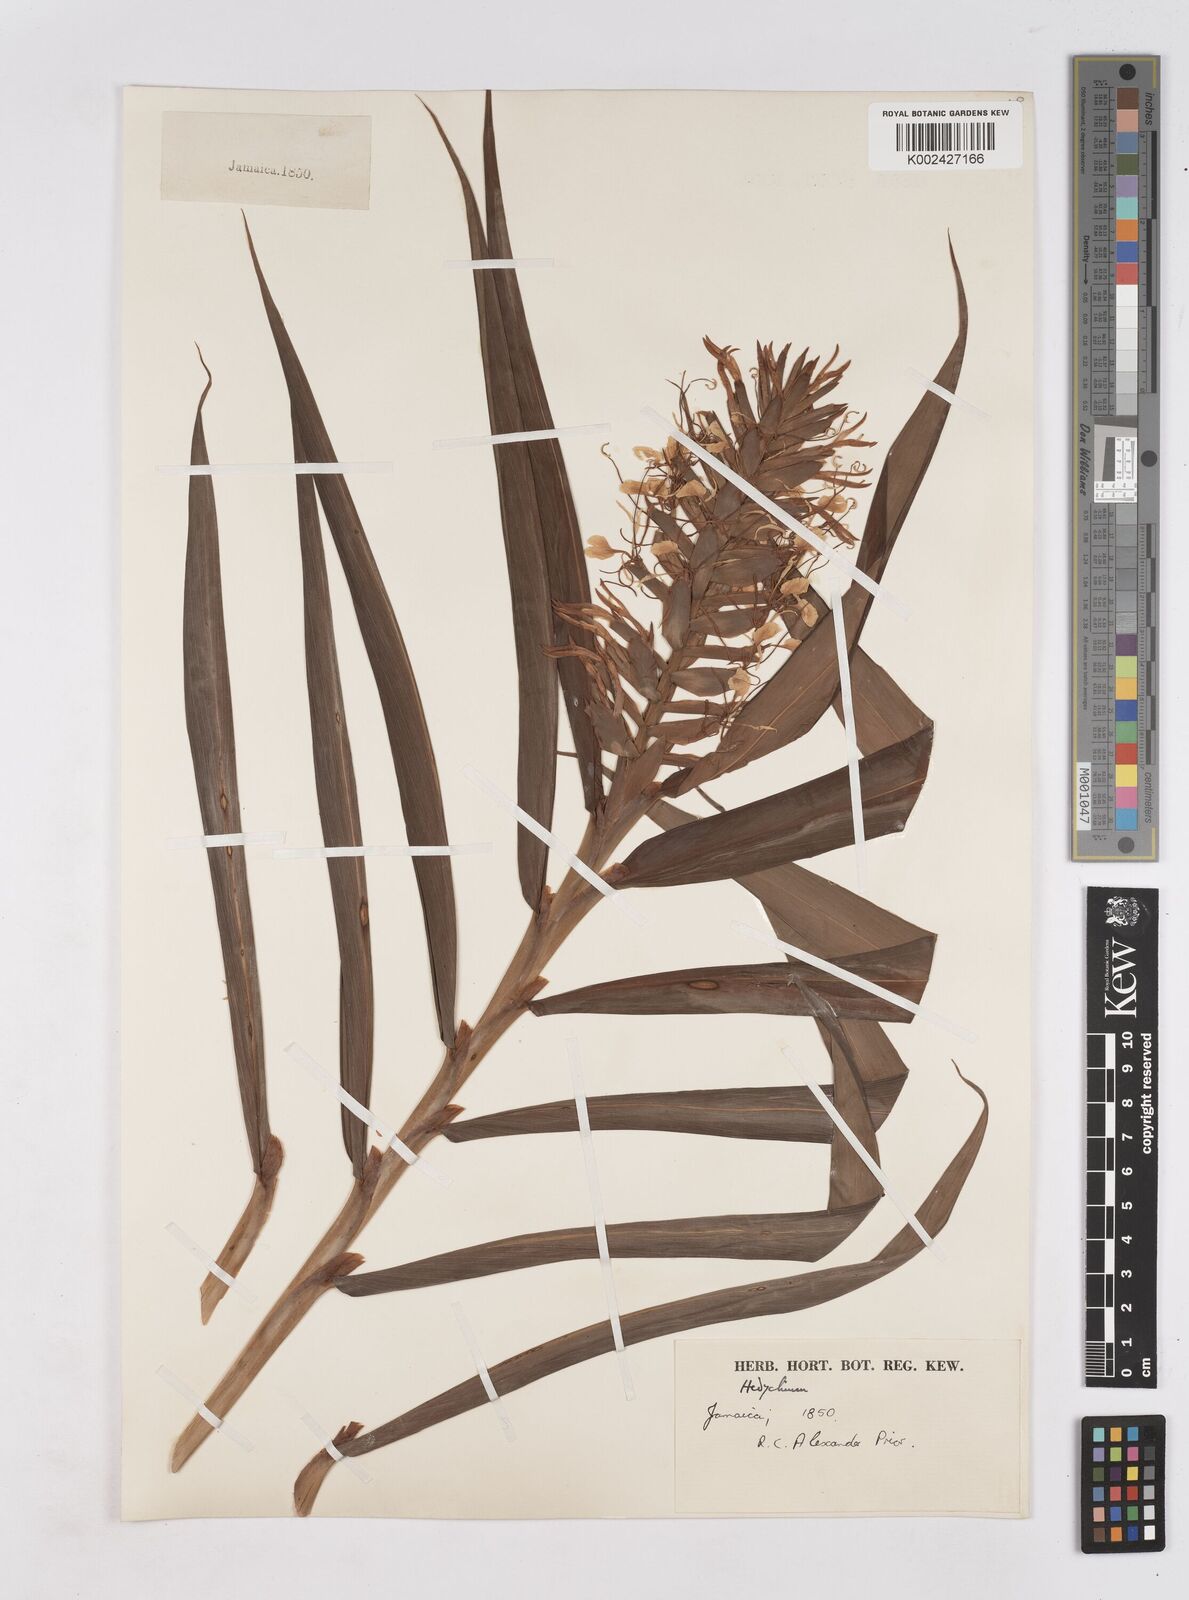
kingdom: Plantae
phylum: Tracheophyta
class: Liliopsida
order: Zingiberales
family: Zingiberaceae
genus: Hedychium
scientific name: Hedychium coccineum
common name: Red ginger-lily
